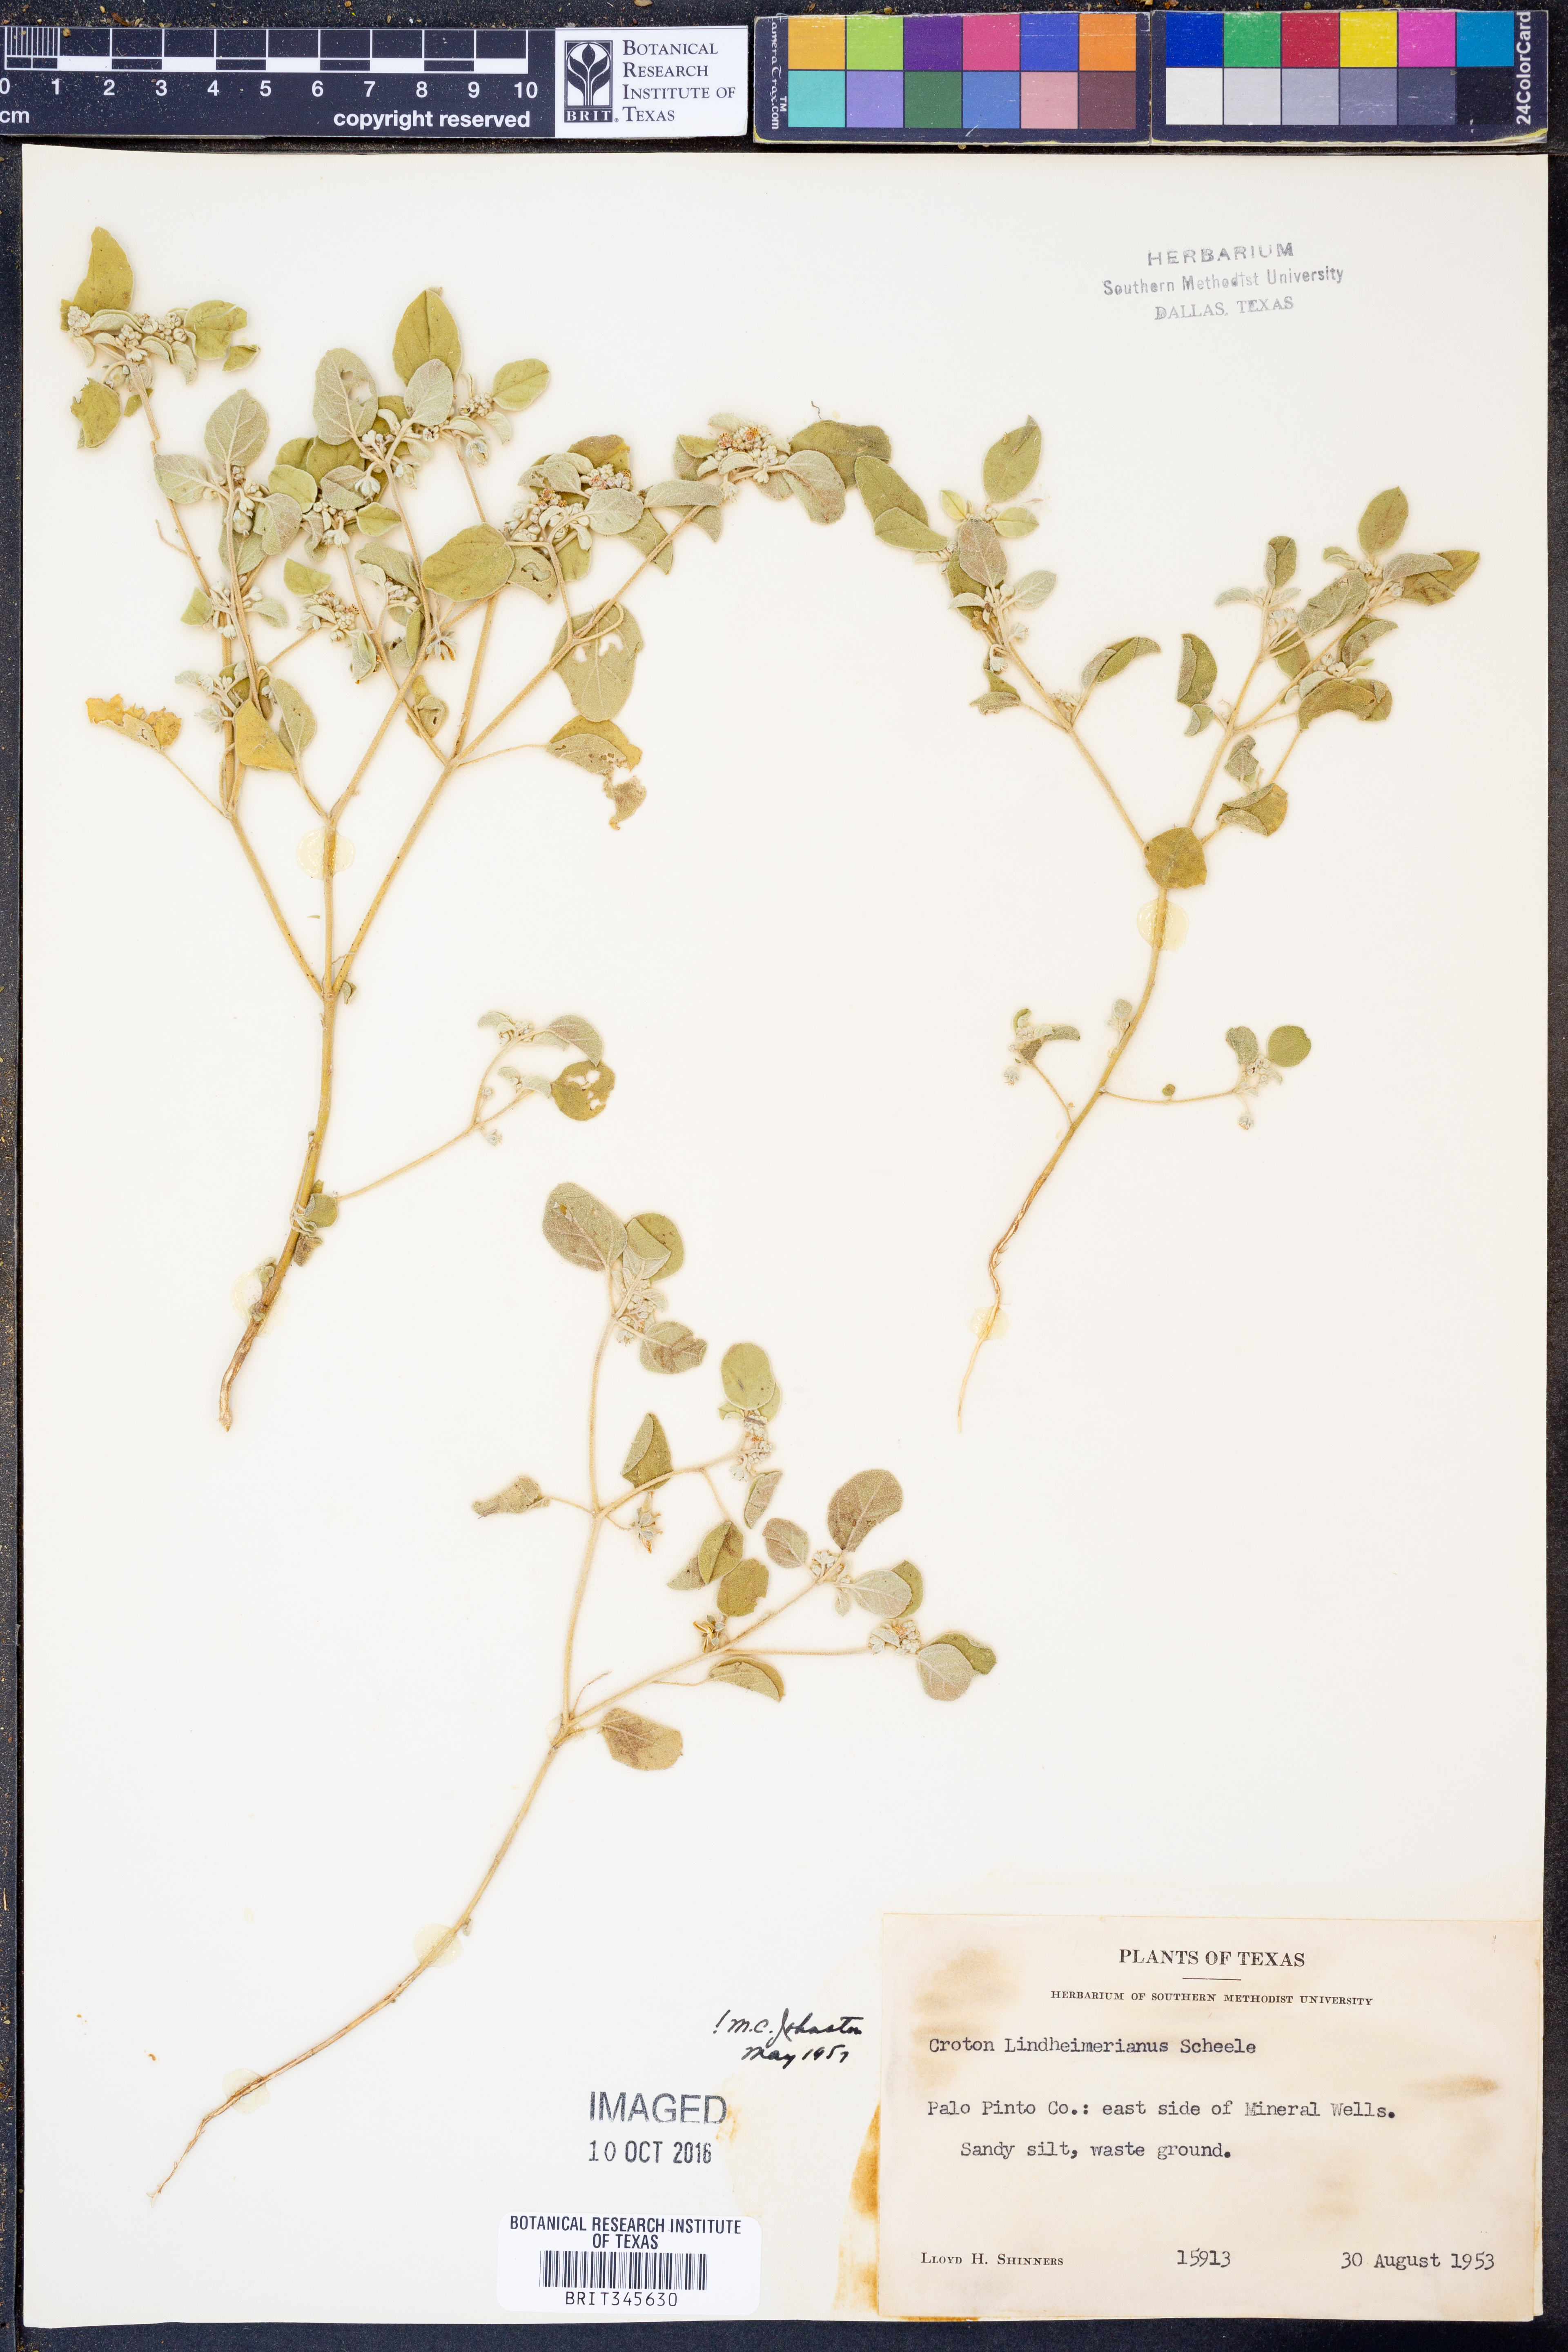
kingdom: Plantae
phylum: Tracheophyta
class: Magnoliopsida
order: Malpighiales
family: Euphorbiaceae
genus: Croton
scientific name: Croton lindheimerianus
